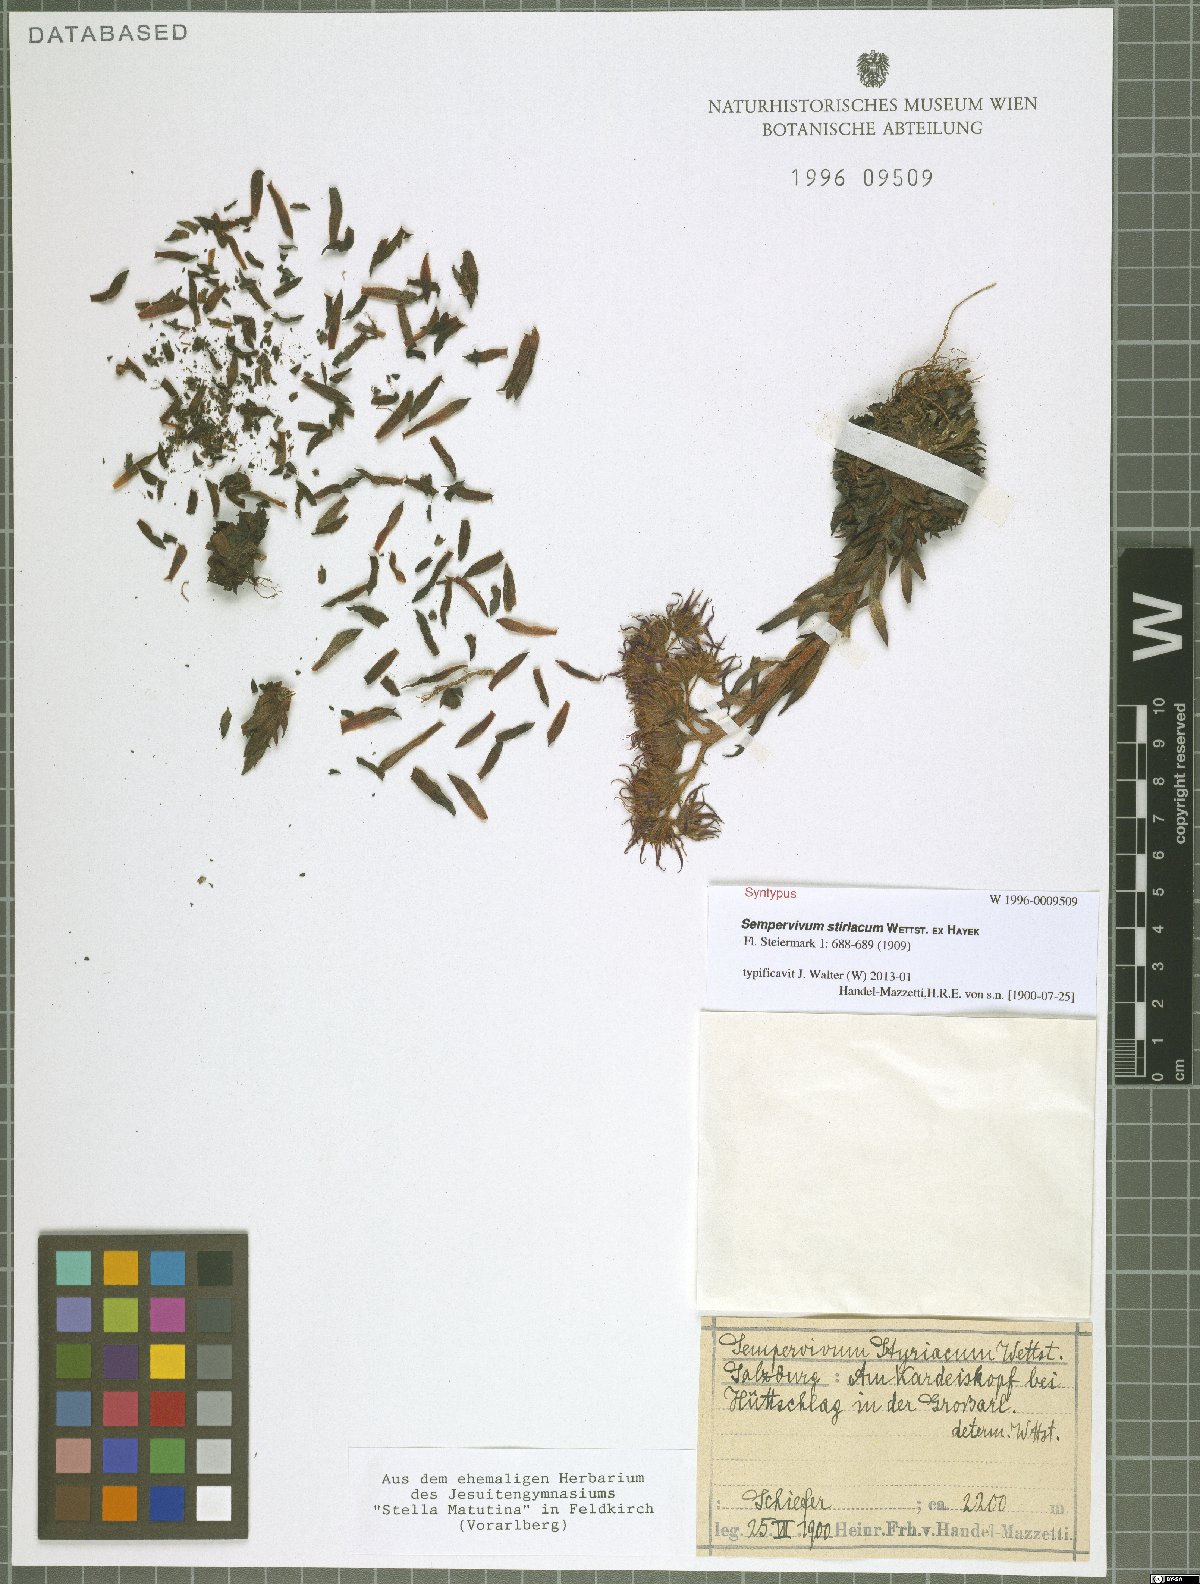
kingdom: Plantae
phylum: Tracheophyta
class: Magnoliopsida
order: Saxifragales
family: Crassulaceae
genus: Sempervivum
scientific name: Sempervivum montanum
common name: Mountain house-leek
